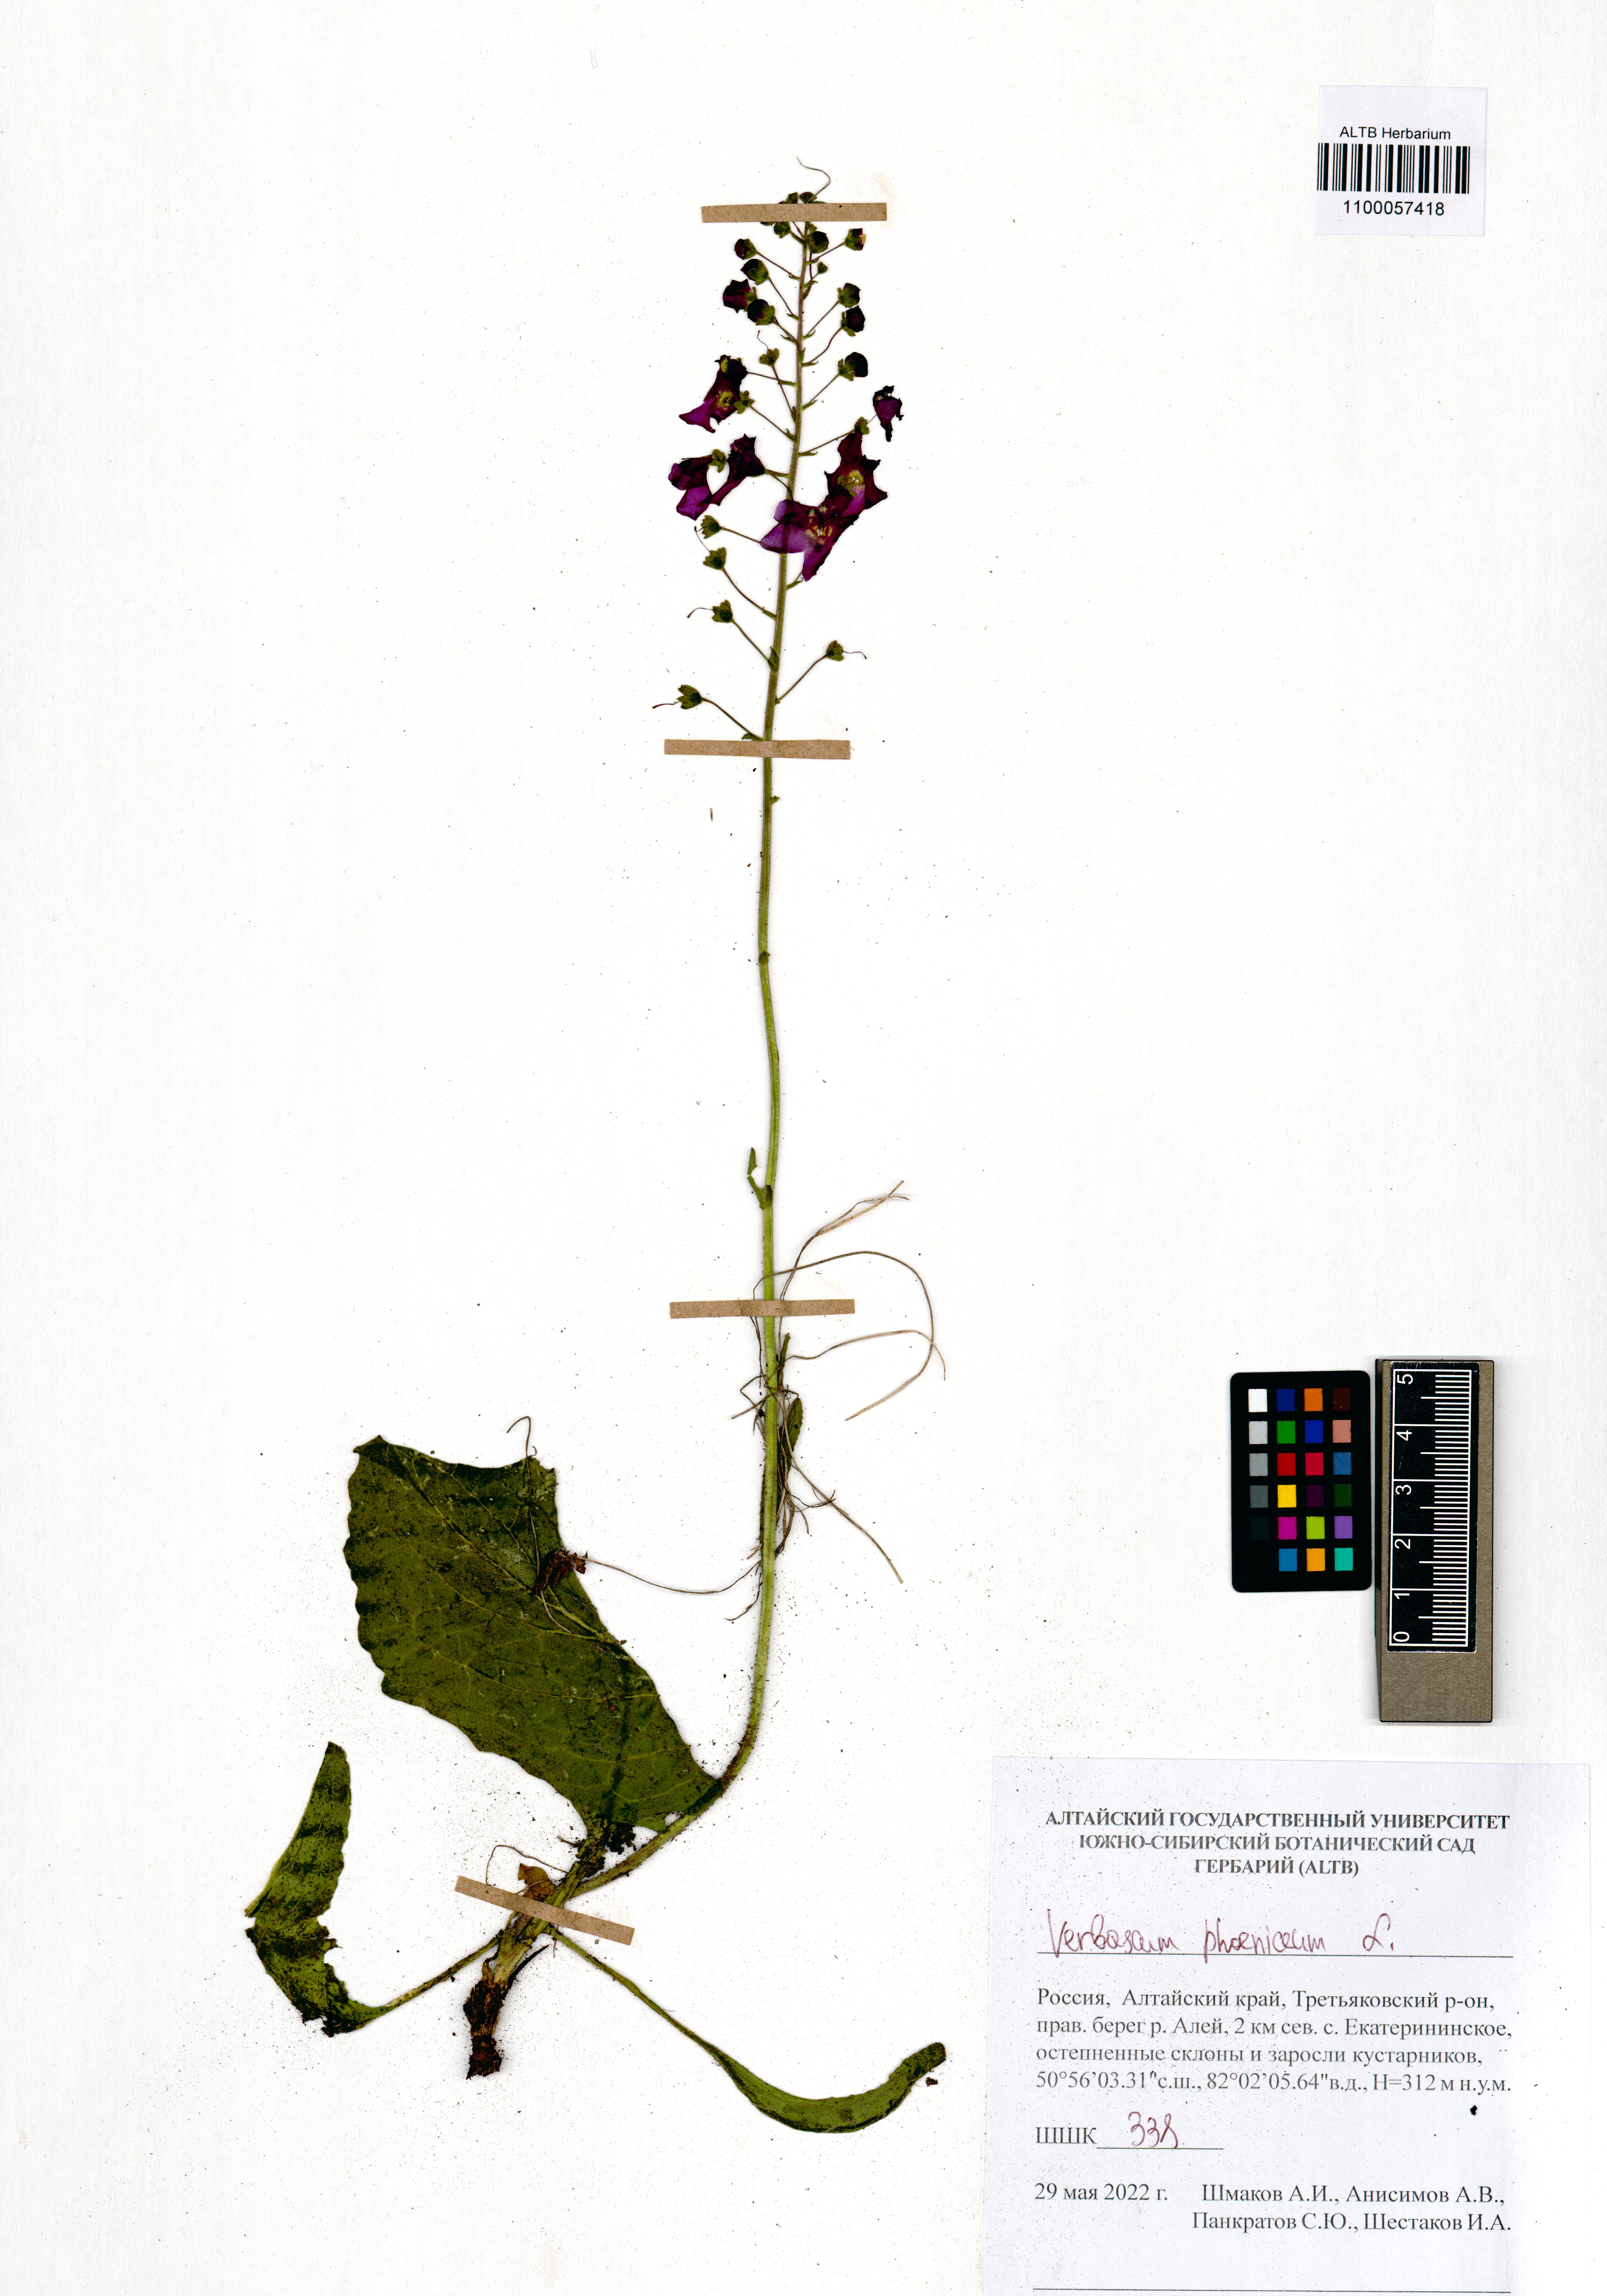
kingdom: Plantae
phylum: Tracheophyta
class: Magnoliopsida
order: Lamiales
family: Scrophulariaceae
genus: Verbascum
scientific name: Verbascum phoeniceum
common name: Purple mullein
